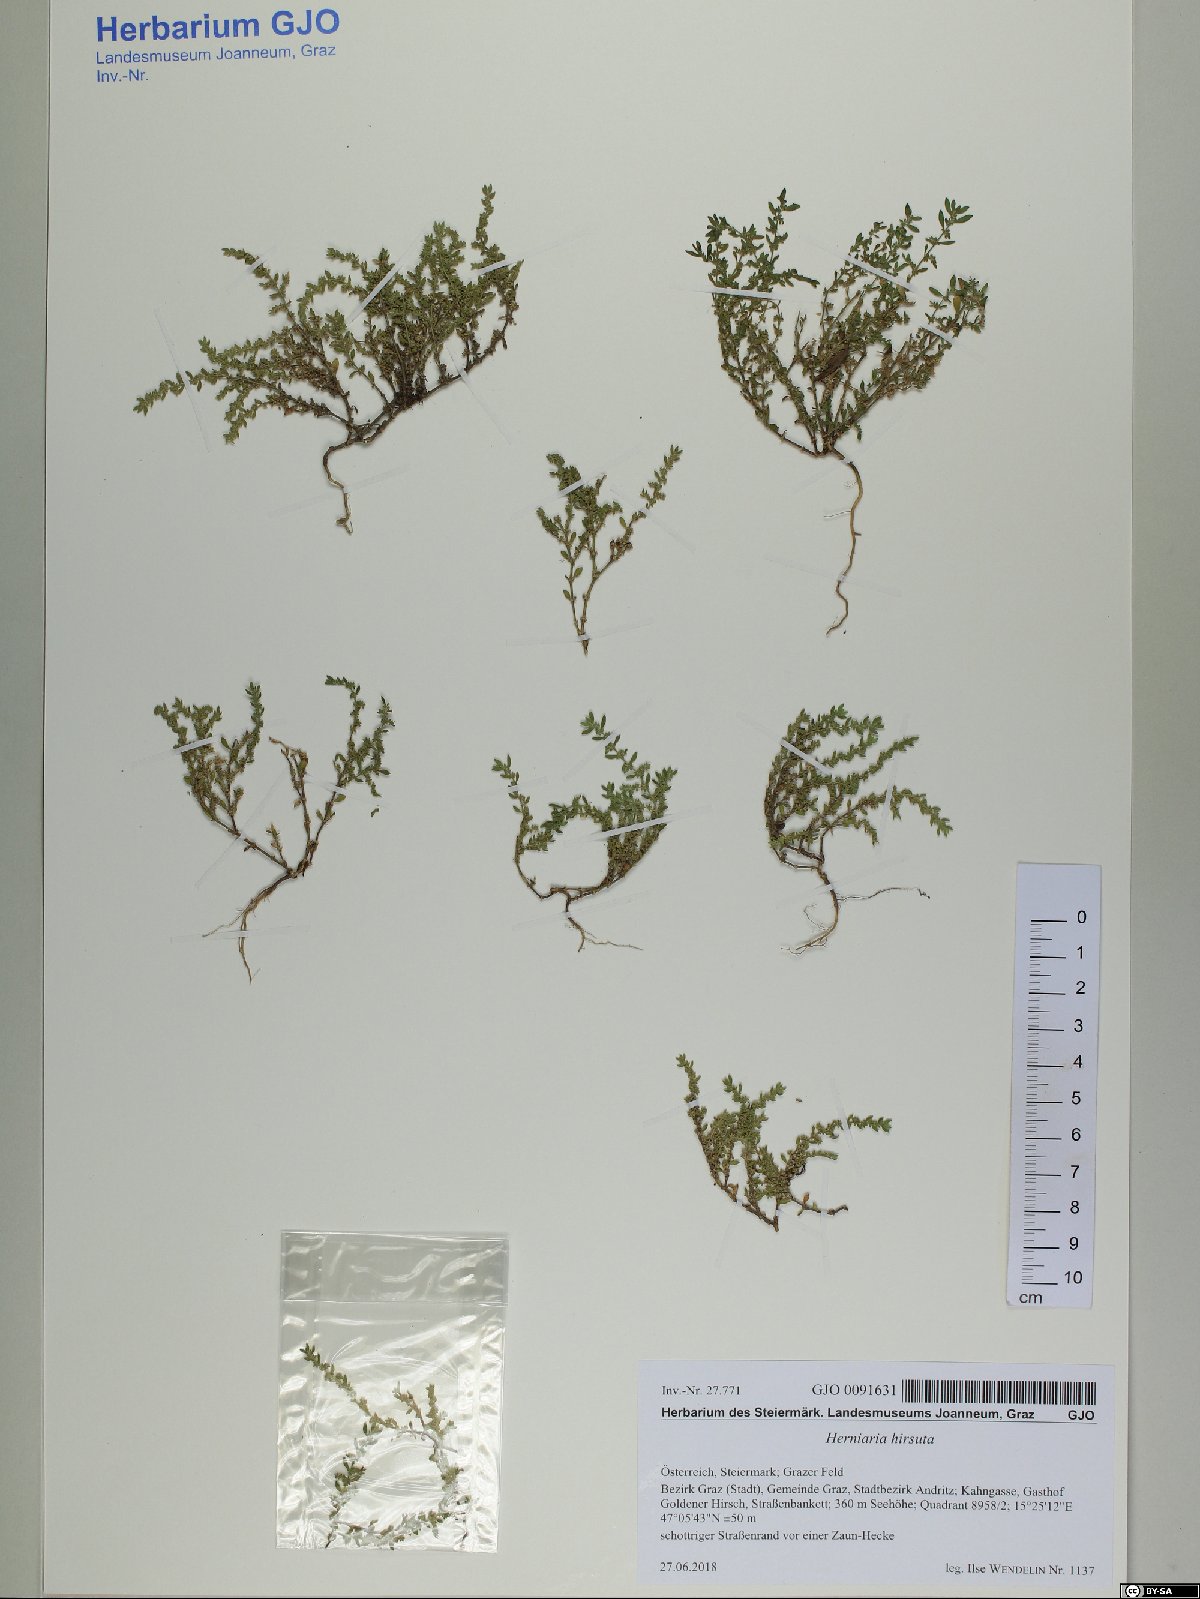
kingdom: Plantae
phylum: Tracheophyta
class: Magnoliopsida
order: Caryophyllales
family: Caryophyllaceae
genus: Herniaria
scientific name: Herniaria hirsuta
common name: Hairy rupturewort
